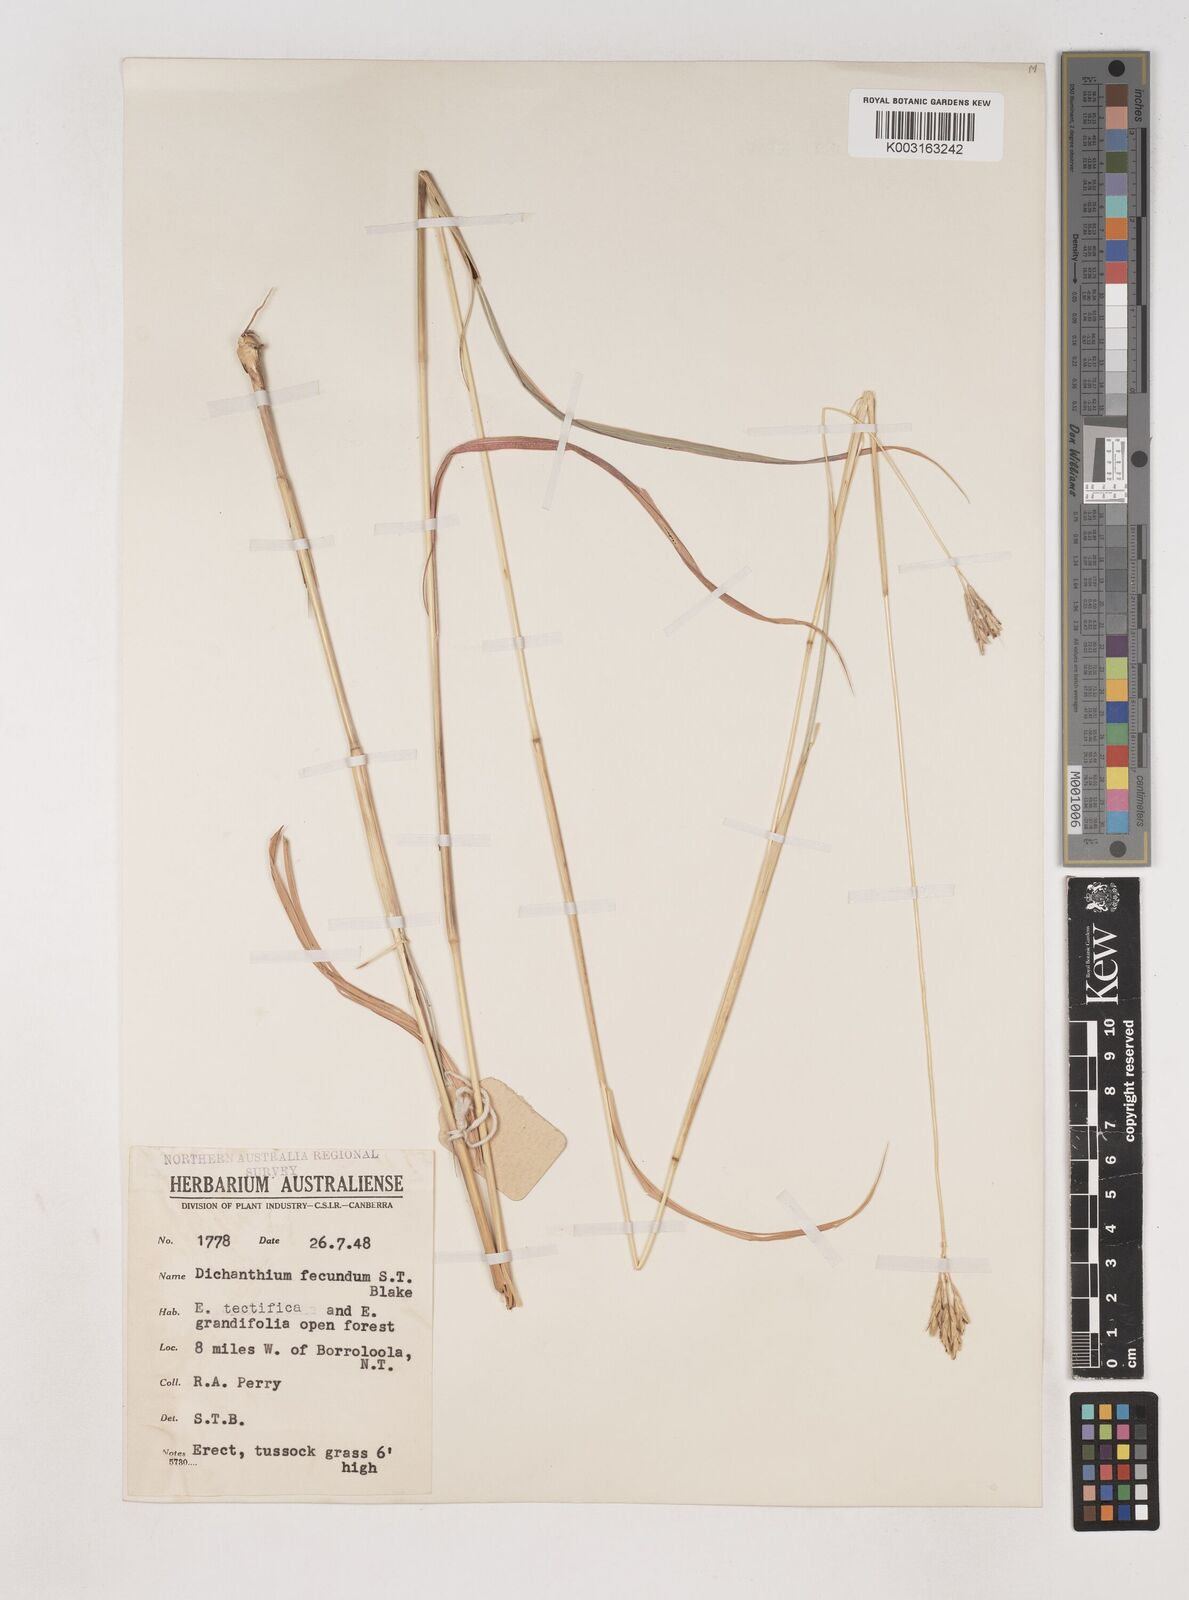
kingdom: Plantae
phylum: Tracheophyta
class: Liliopsida
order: Poales
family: Poaceae
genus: Dichanthium
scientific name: Dichanthium fecundum
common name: Bundle-bundle
